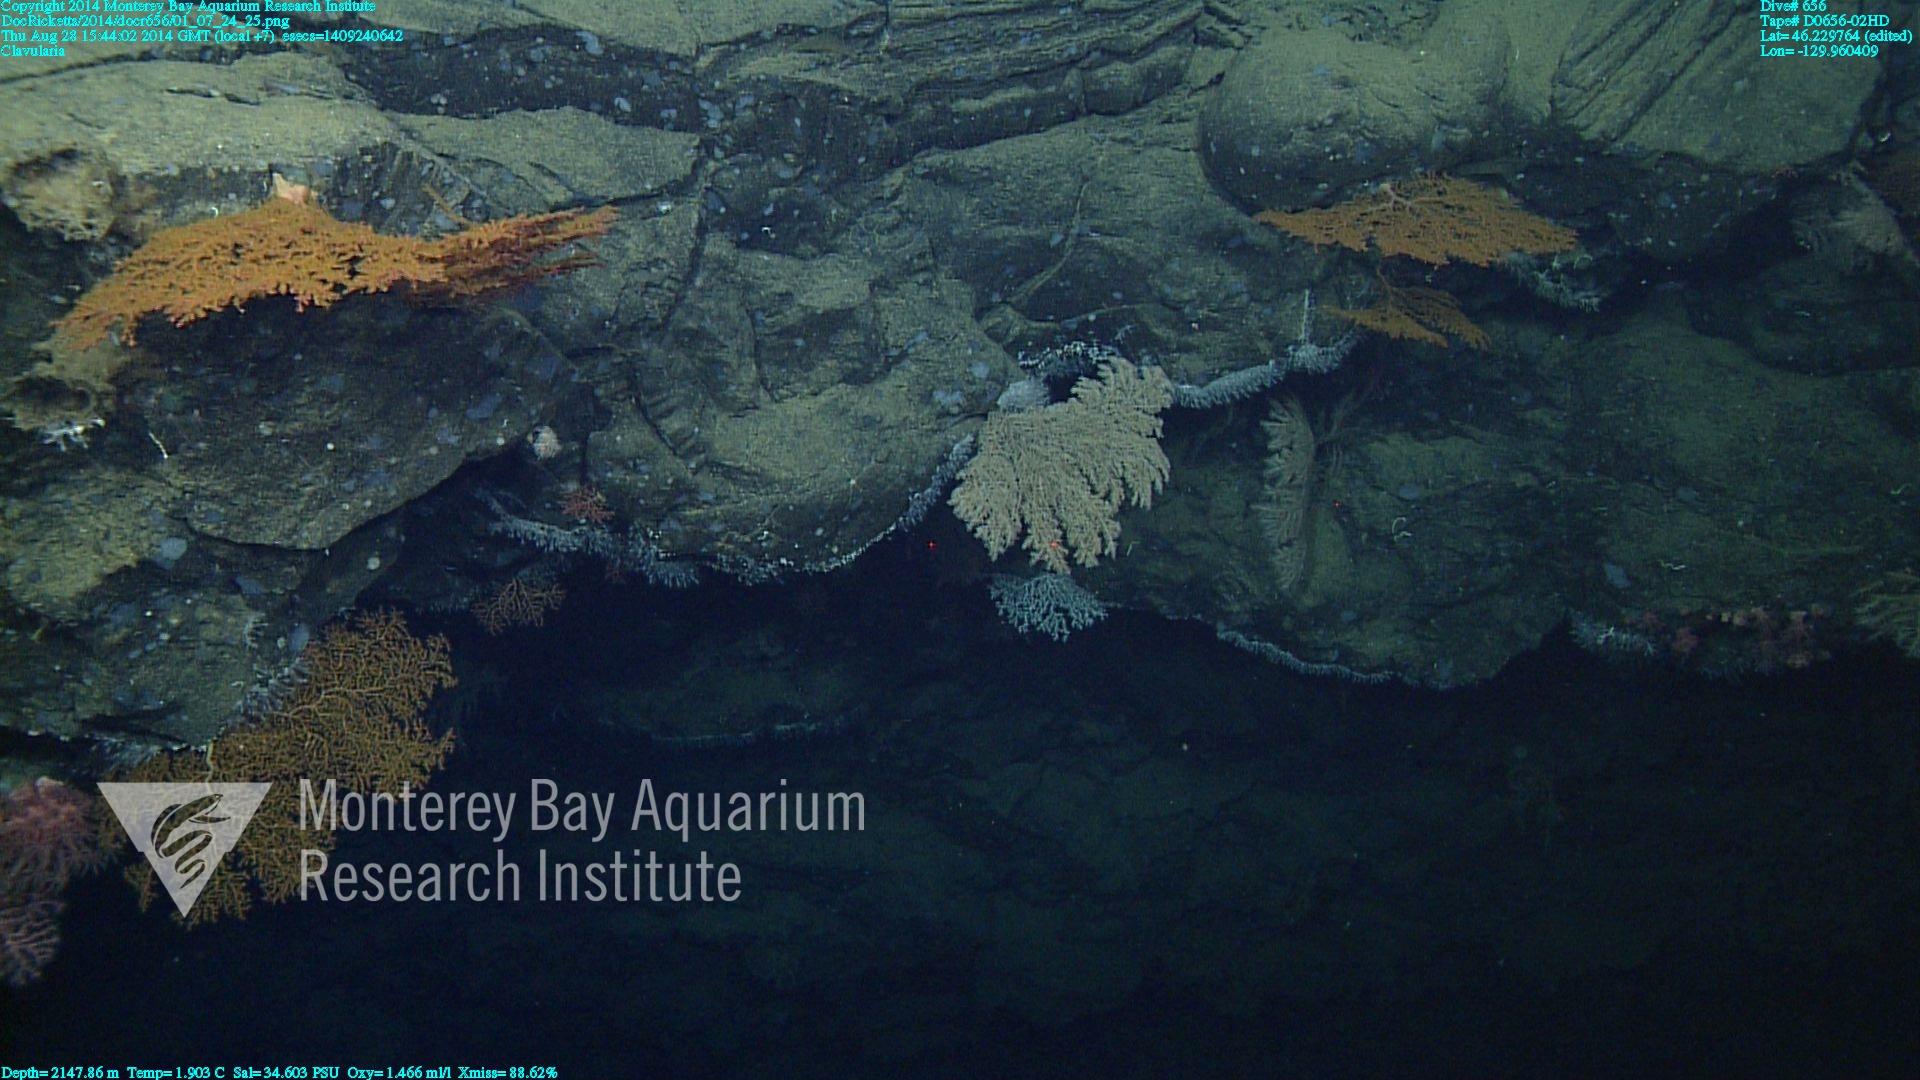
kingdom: Animalia
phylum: Cnidaria
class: Anthozoa
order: Malacalcyonacea
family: Clavulariidae
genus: Clavularia
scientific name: Clavularia
